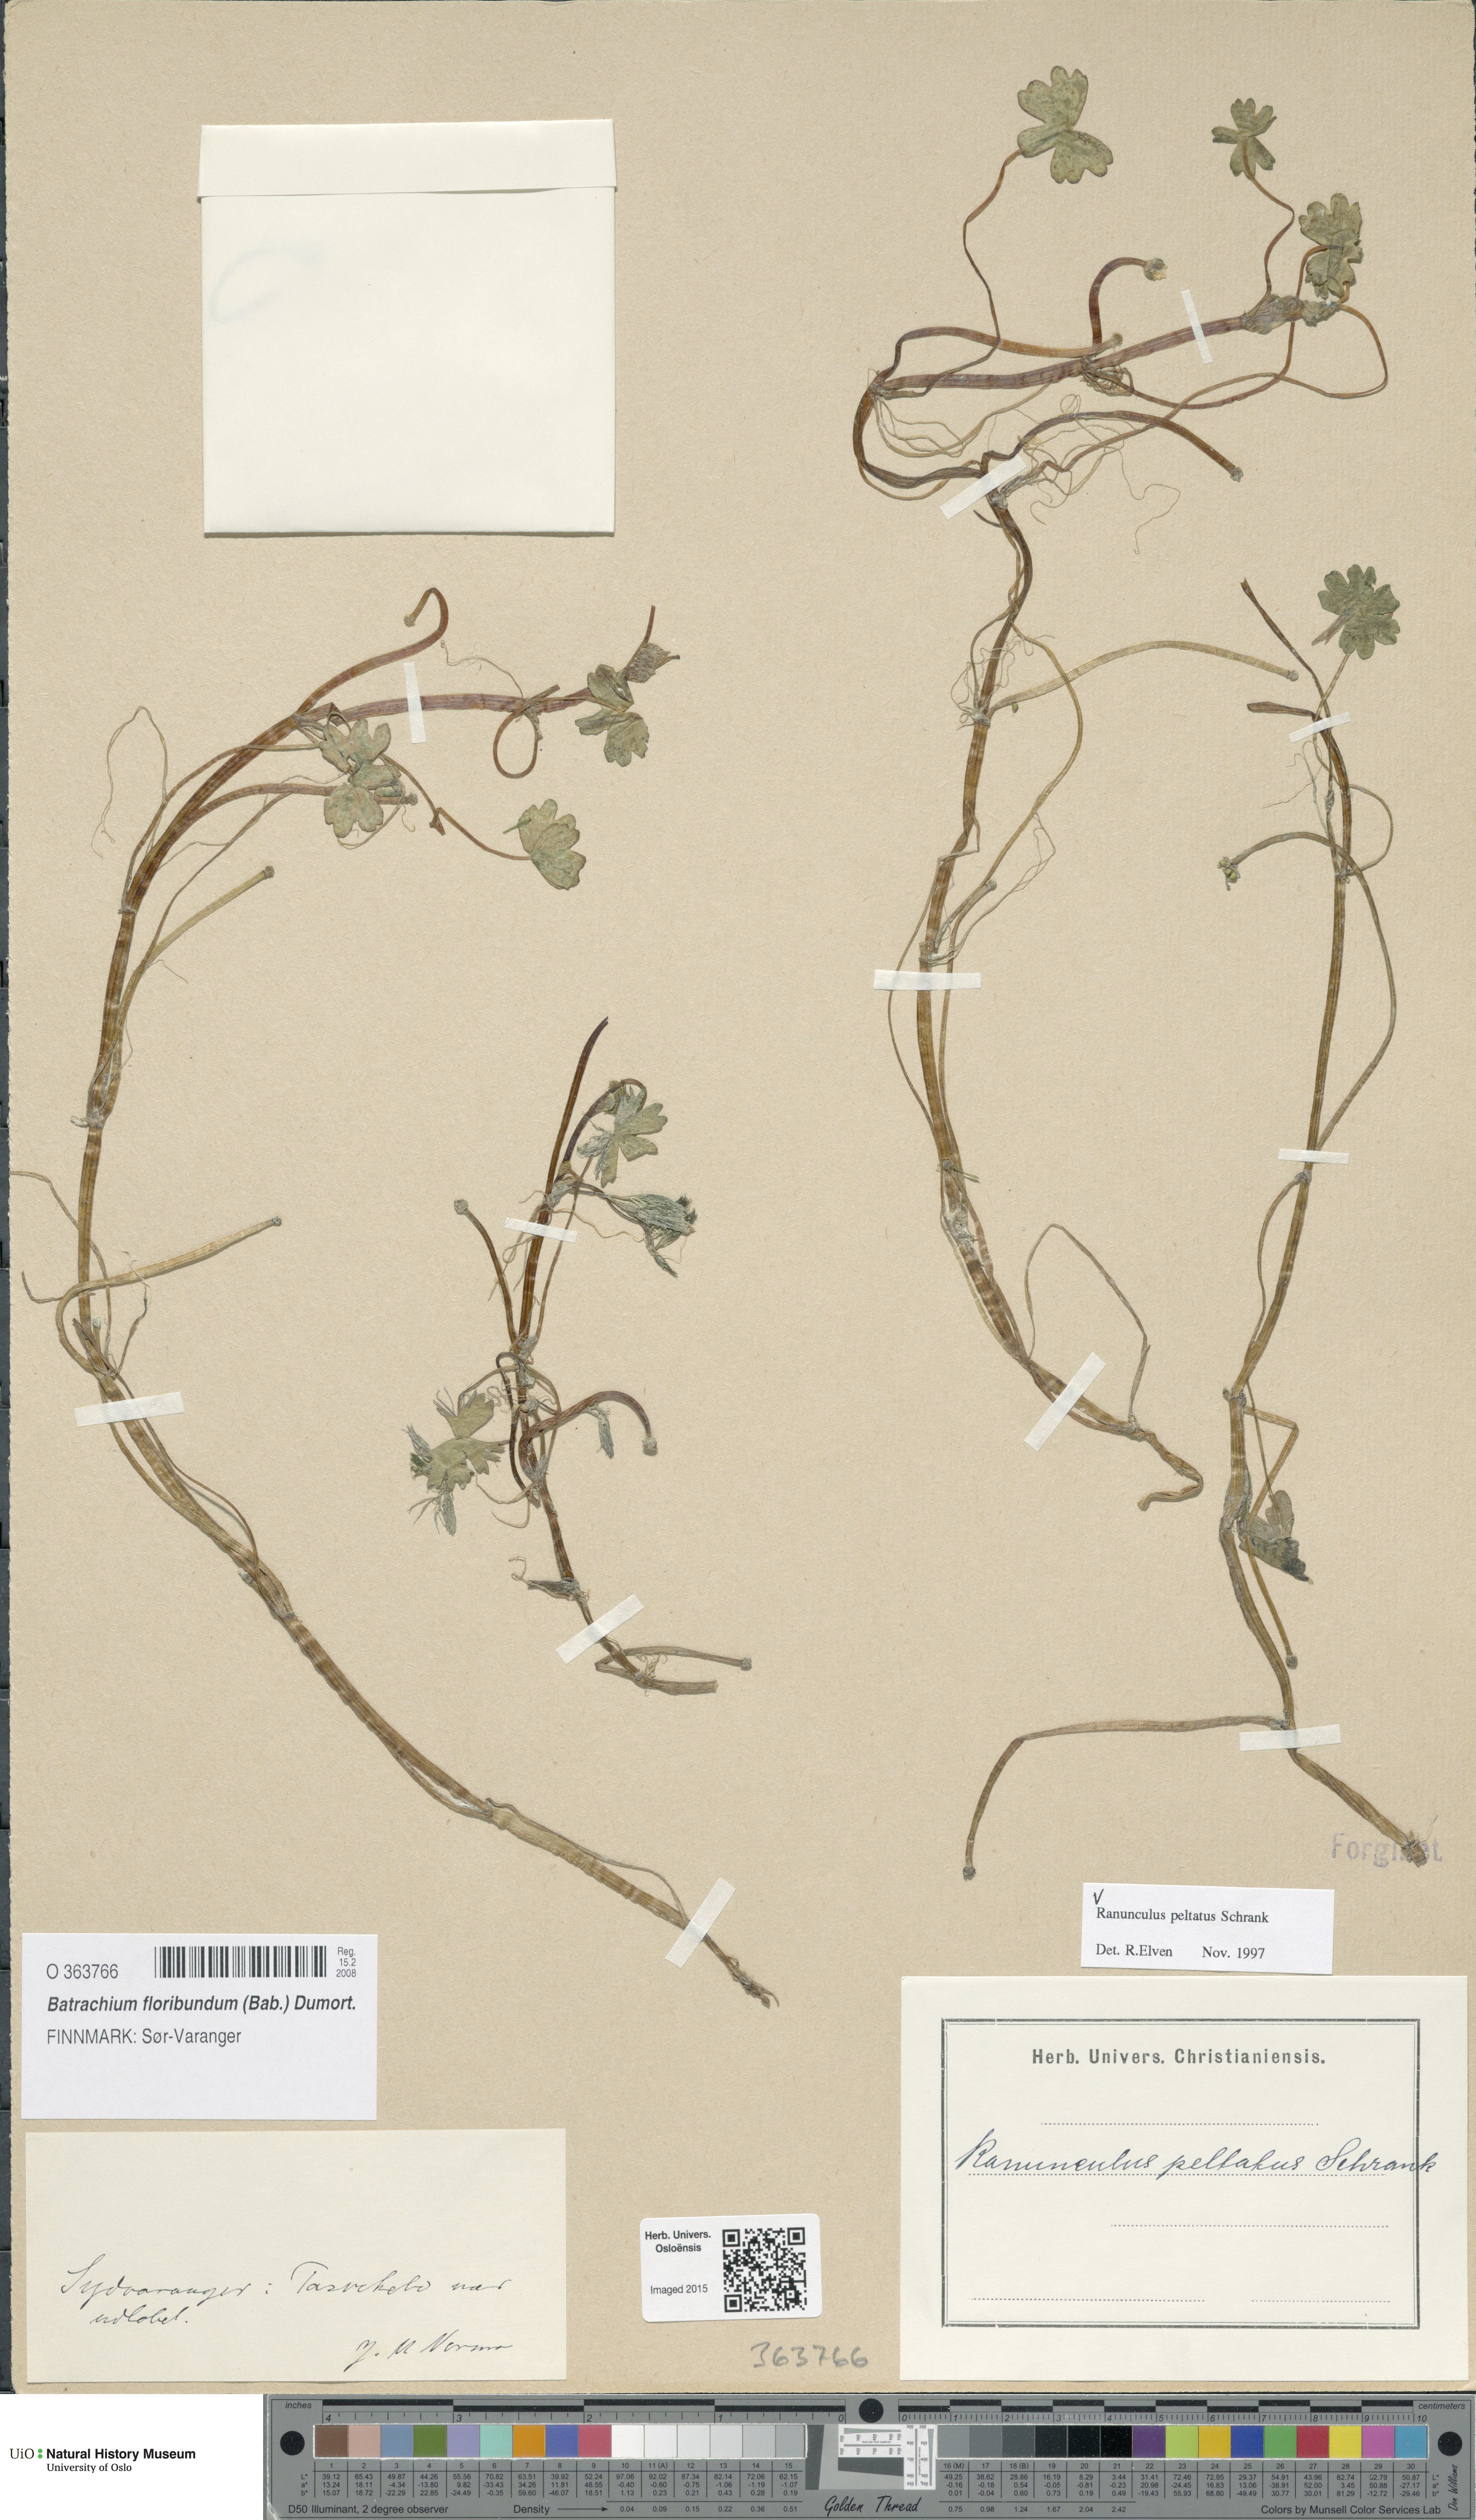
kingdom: Plantae
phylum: Tracheophyta
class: Magnoliopsida
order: Ranunculales
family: Ranunculaceae
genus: Ranunculus
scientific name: Ranunculus peltatus
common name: Pond water-crowfoot
